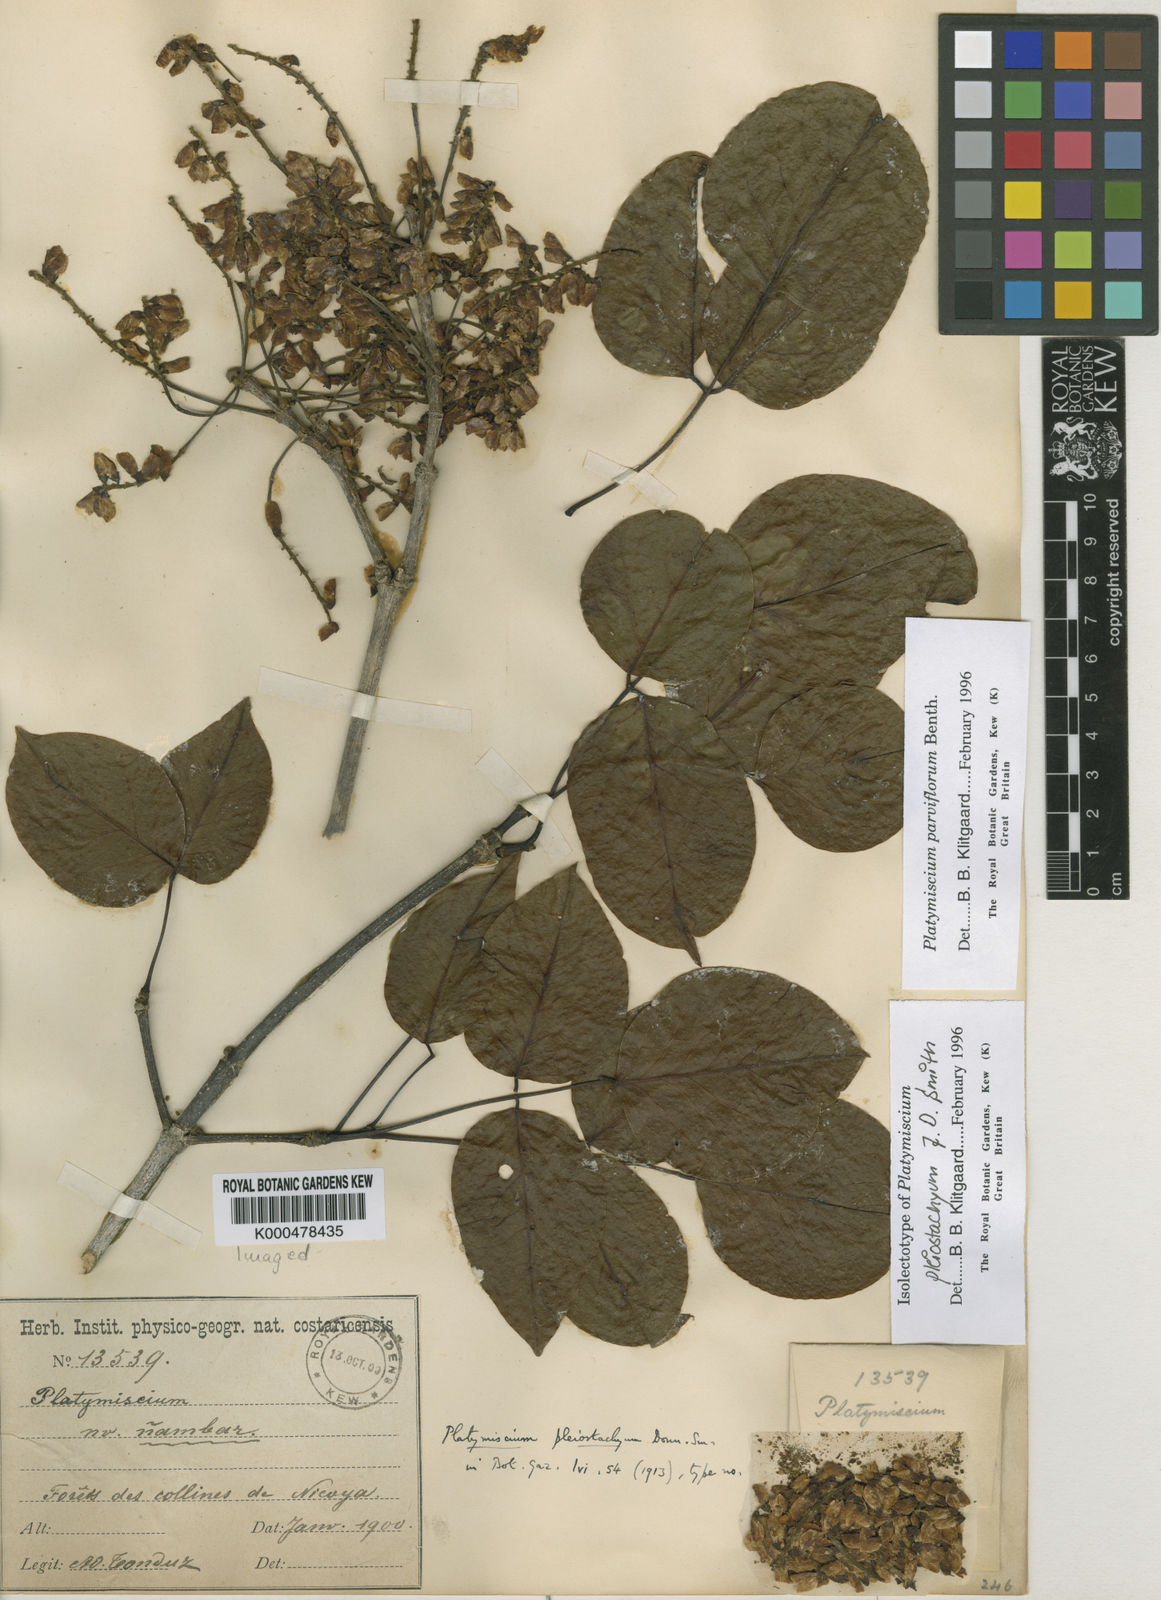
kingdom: Plantae
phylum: Tracheophyta
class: Magnoliopsida
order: Fabales
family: Fabaceae
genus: Platymiscium
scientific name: Platymiscium parviflorum
